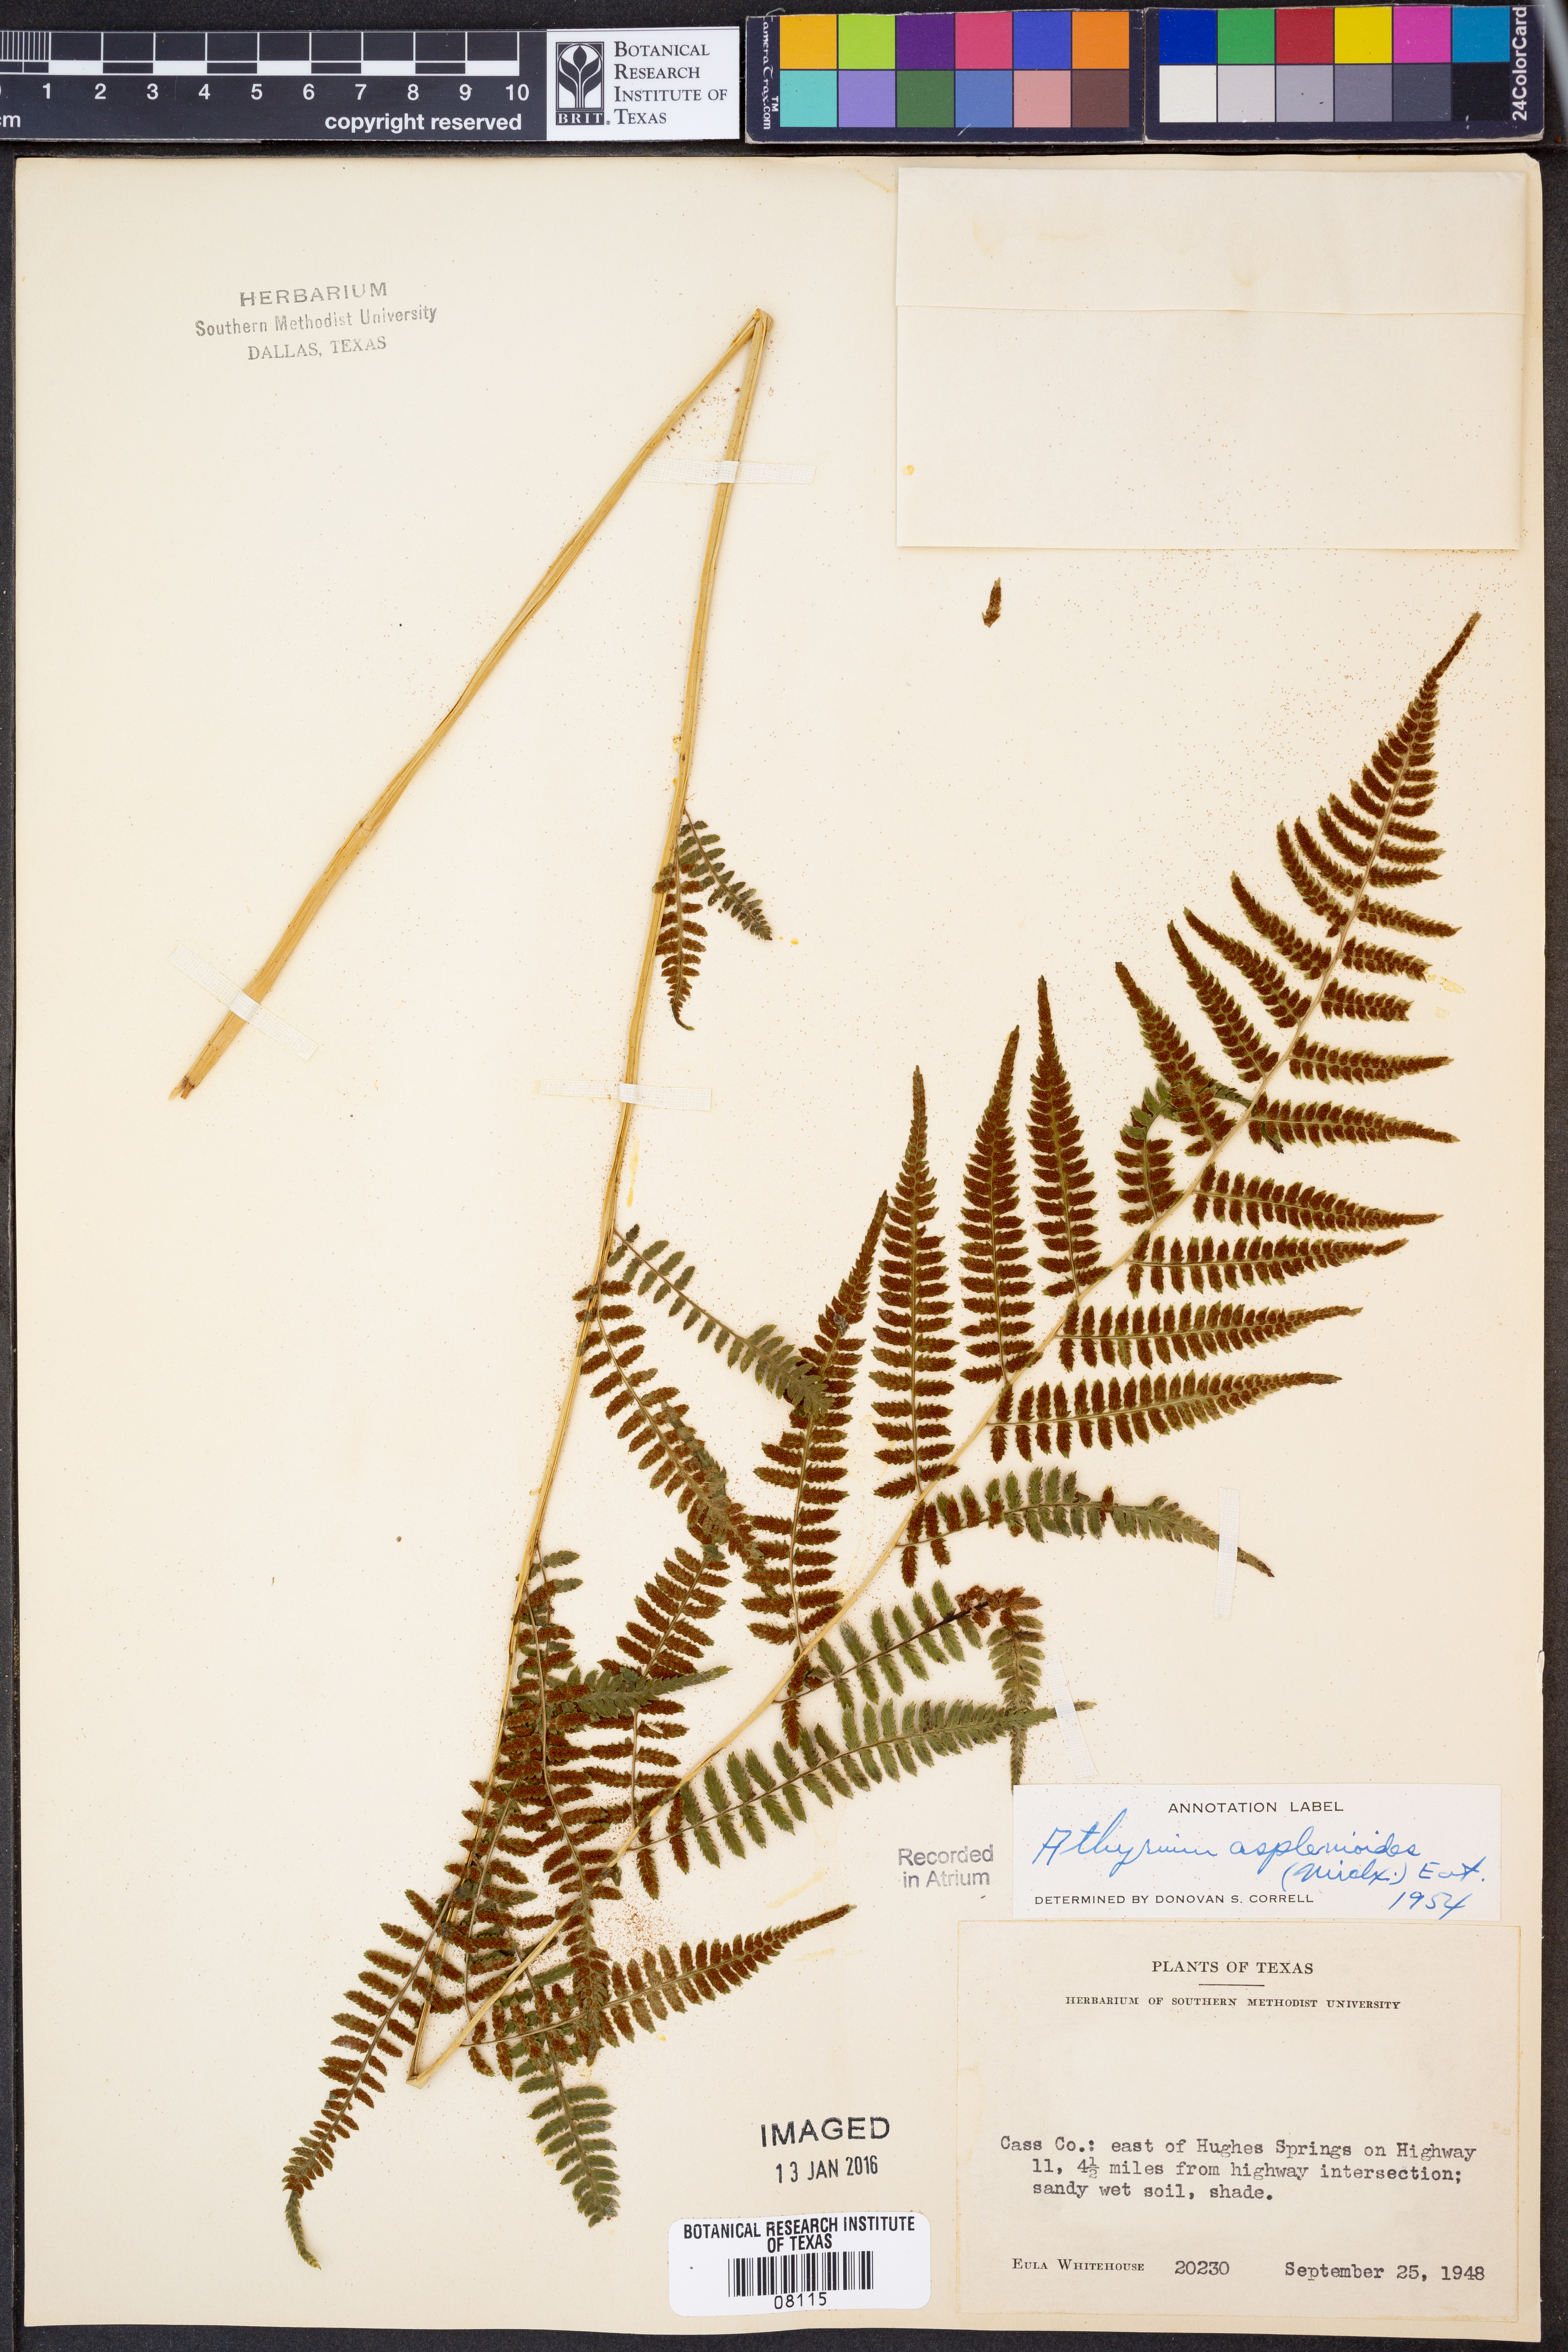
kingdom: Plantae
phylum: Tracheophyta
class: Polypodiopsida
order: Polypodiales
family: Athyriaceae
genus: Athyrium
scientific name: Athyrium asplenioides
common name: Southern lady fern
